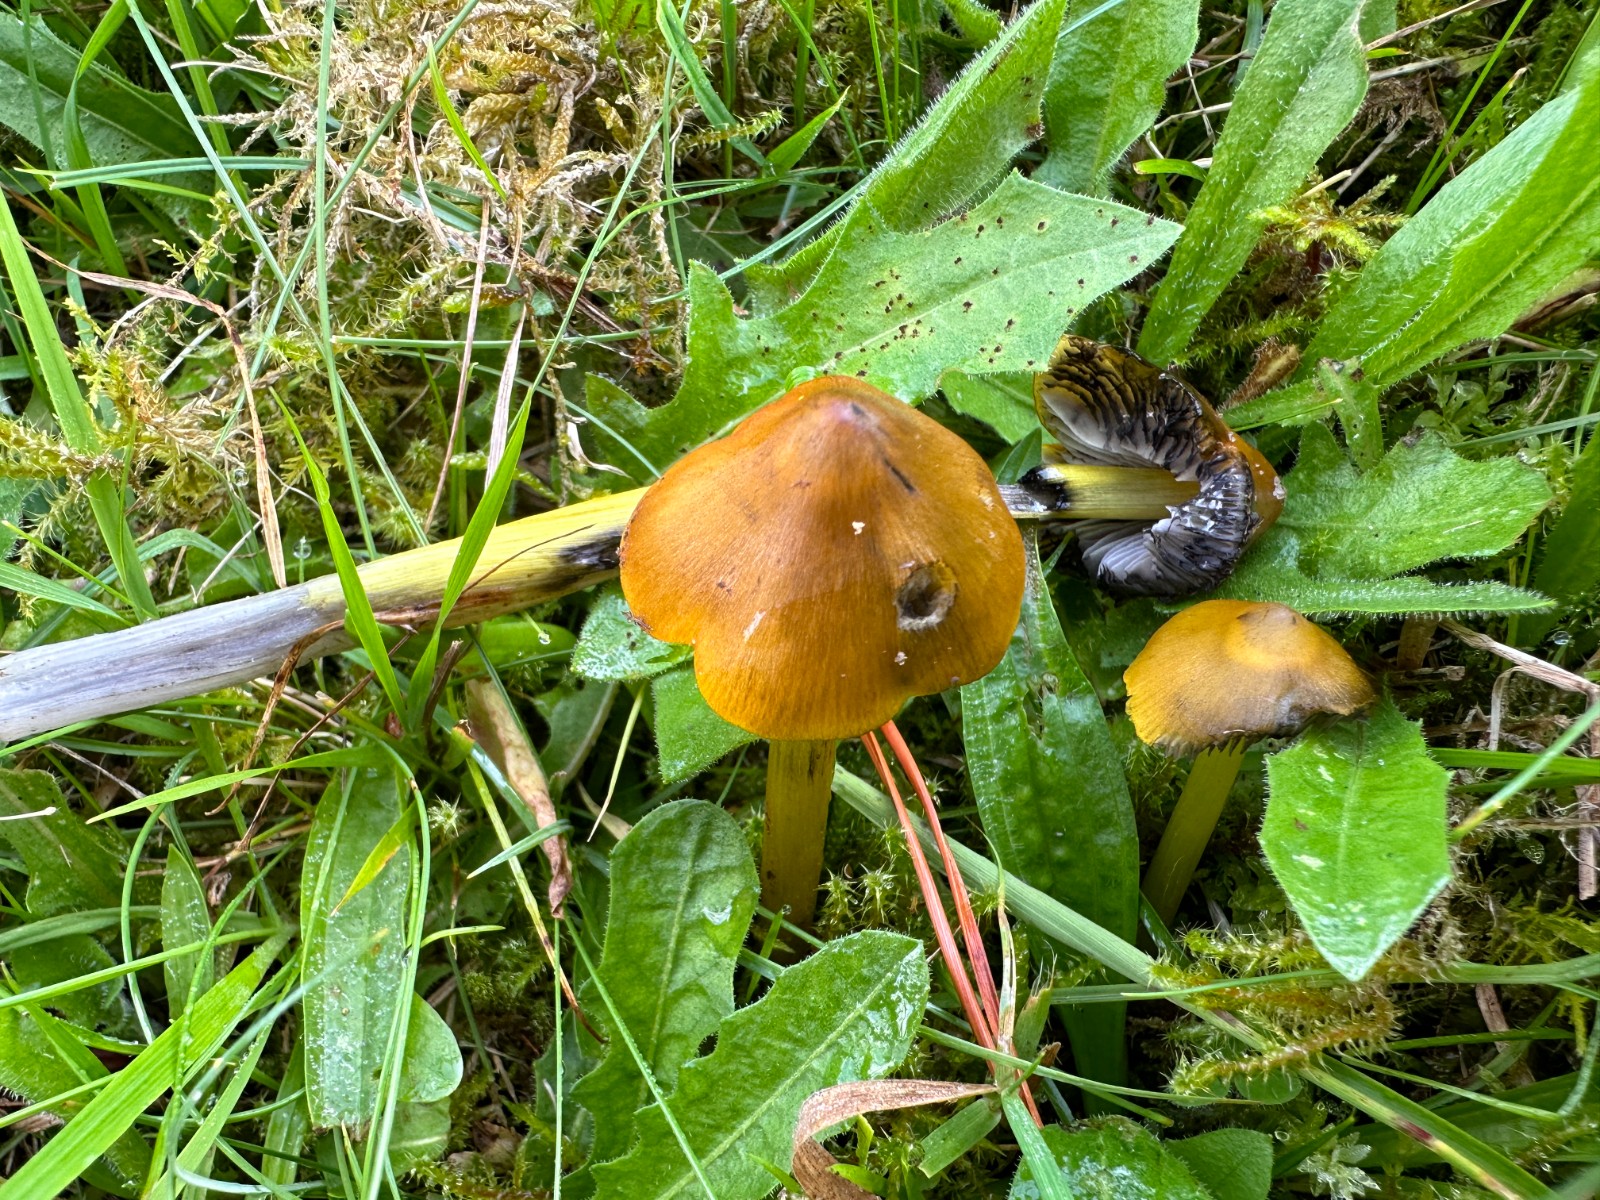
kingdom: Fungi
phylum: Basidiomycota
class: Agaricomycetes
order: Agaricales
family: Hygrophoraceae
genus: Hygrocybe
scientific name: Hygrocybe conica
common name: kegle-vokshat
